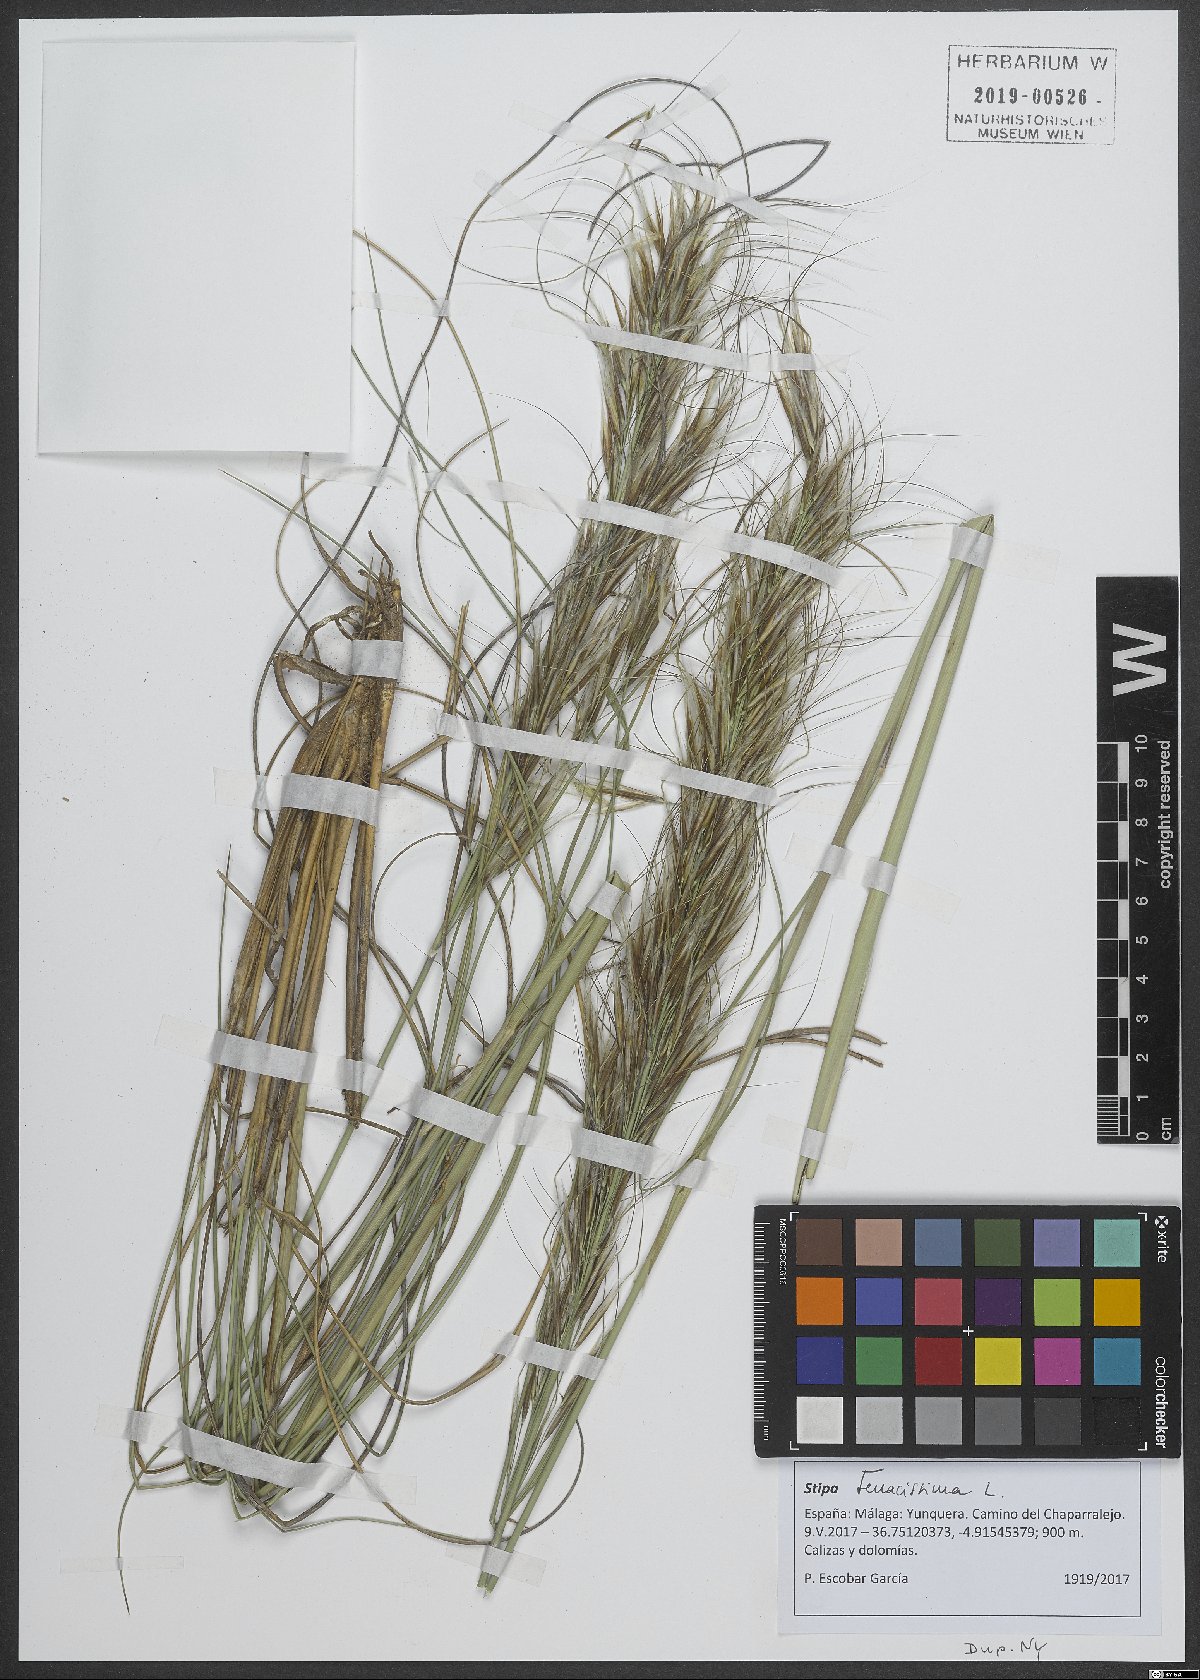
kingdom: Plantae
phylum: Tracheophyta
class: Liliopsida
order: Poales
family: Poaceae
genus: Macrochloa
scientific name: Macrochloa tenacissima
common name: Alfa grass
